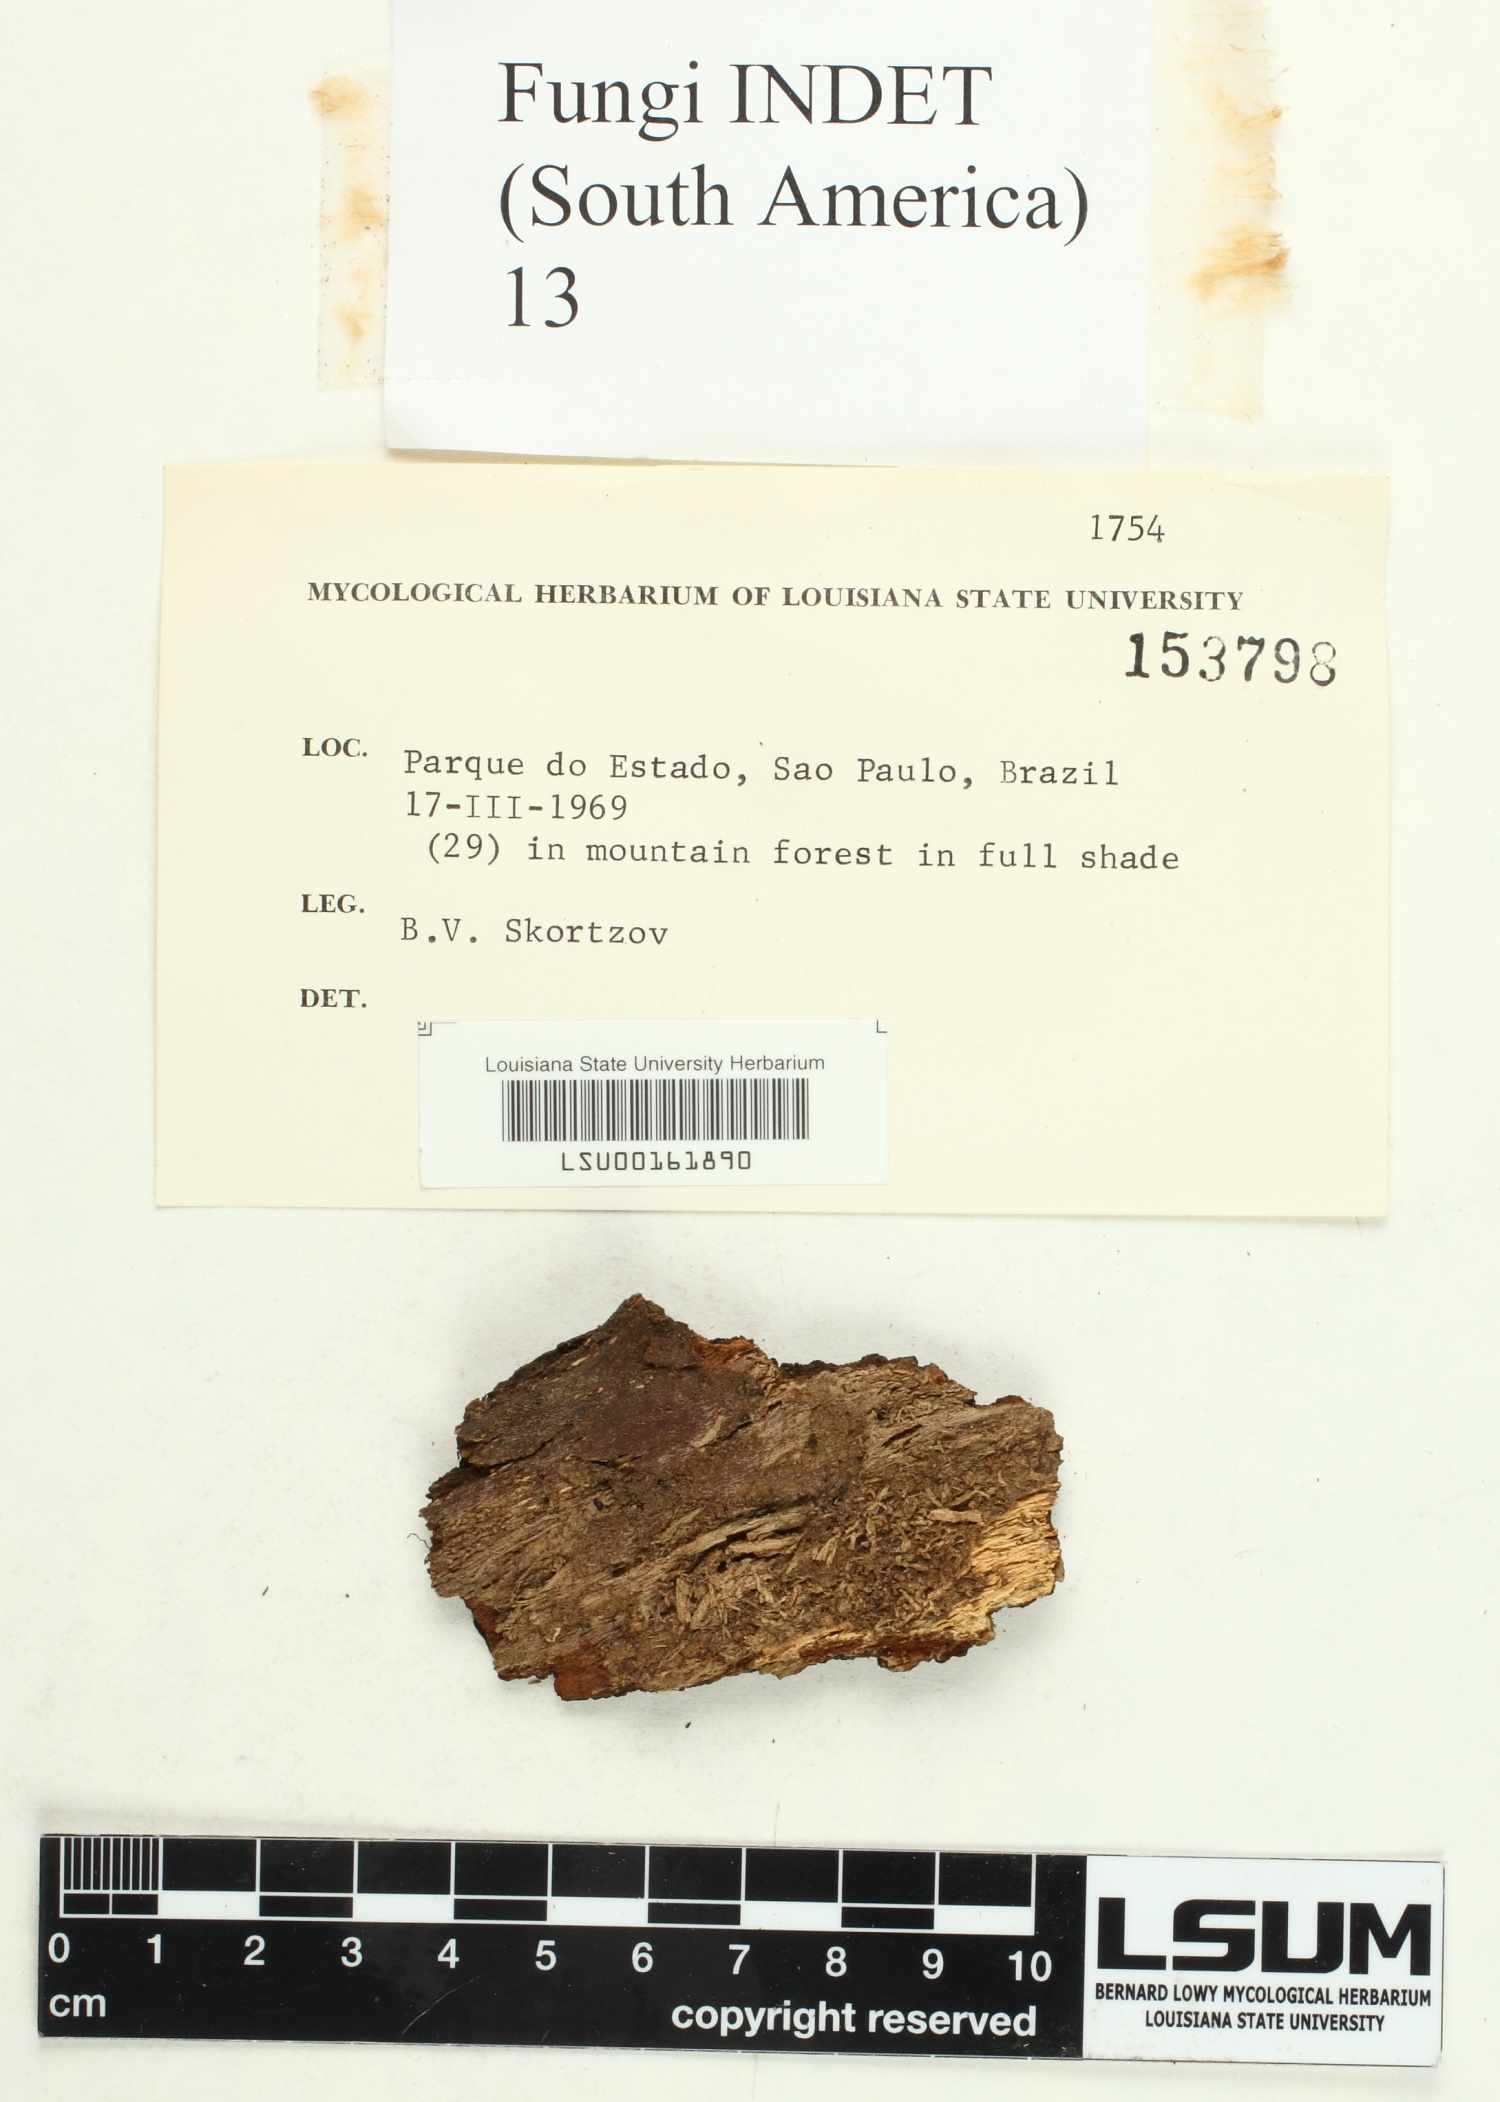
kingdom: Fungi
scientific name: Fungi
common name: Fungi
